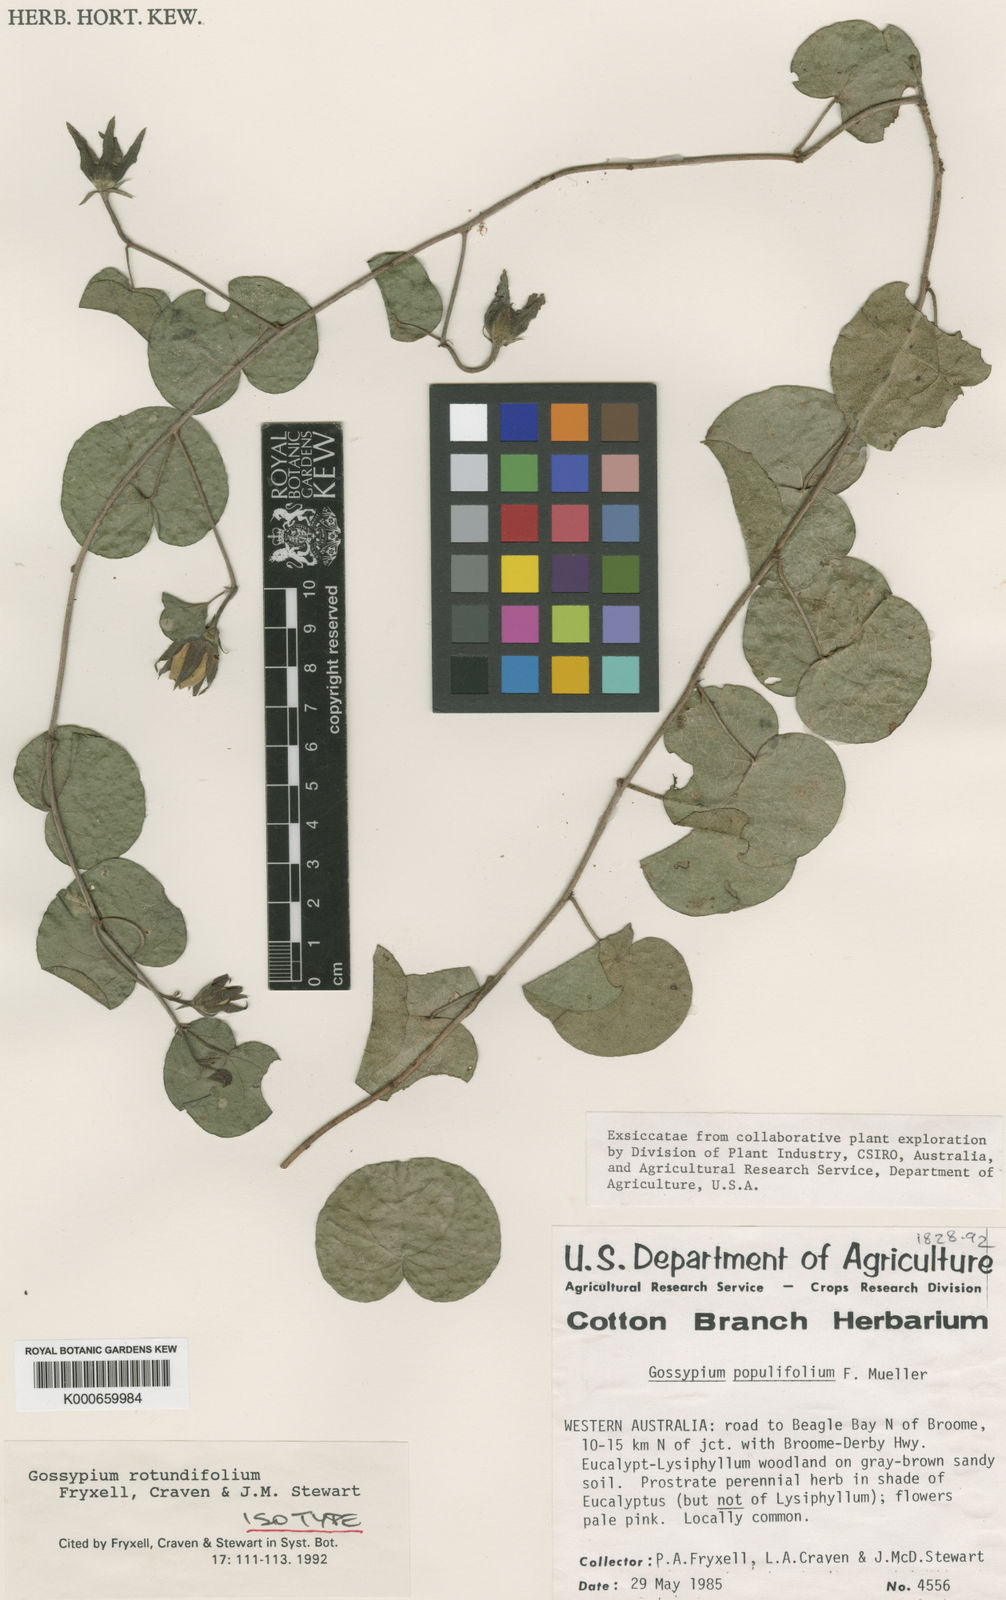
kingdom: Plantae
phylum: Tracheophyta
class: Magnoliopsida
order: Malvales
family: Malvaceae
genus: Gossypium
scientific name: Gossypium
